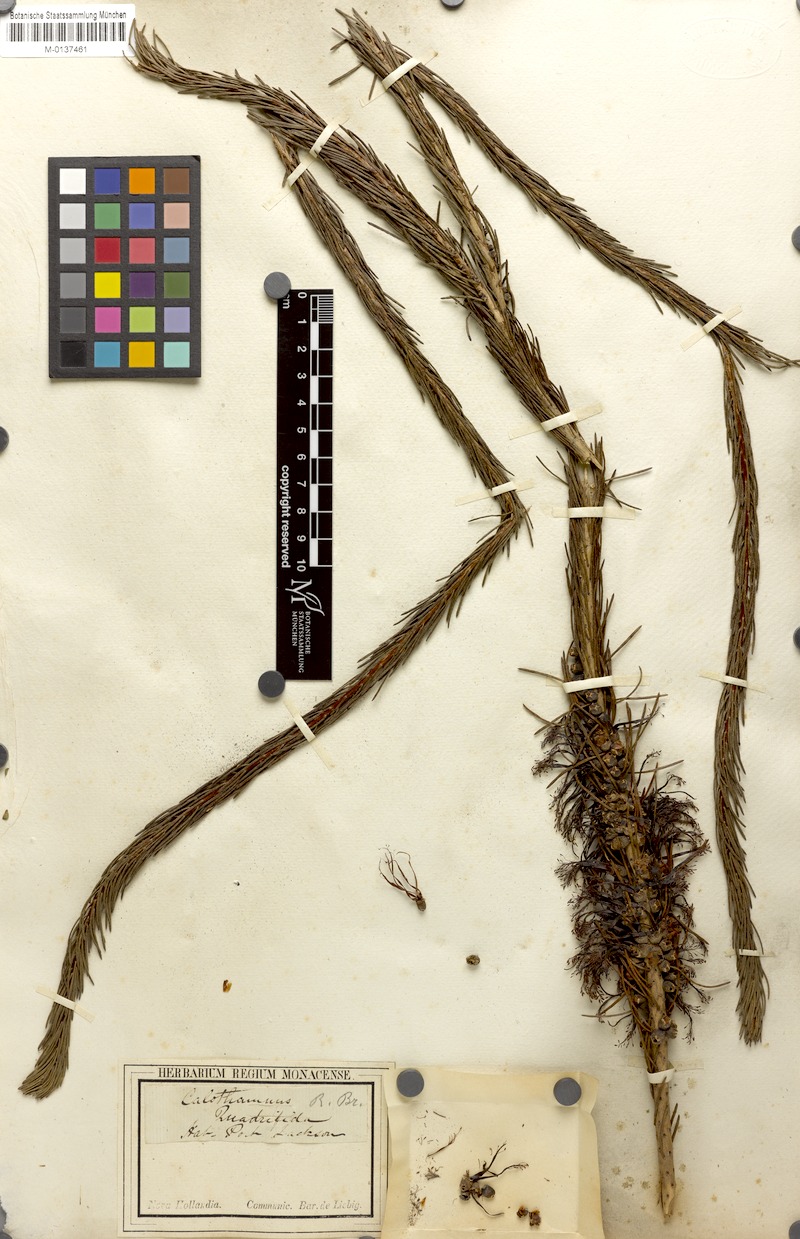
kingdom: Plantae
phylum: Tracheophyta
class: Magnoliopsida
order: Myrtales
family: Myrtaceae
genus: Melaleuca
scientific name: Melaleuca quadrifida
